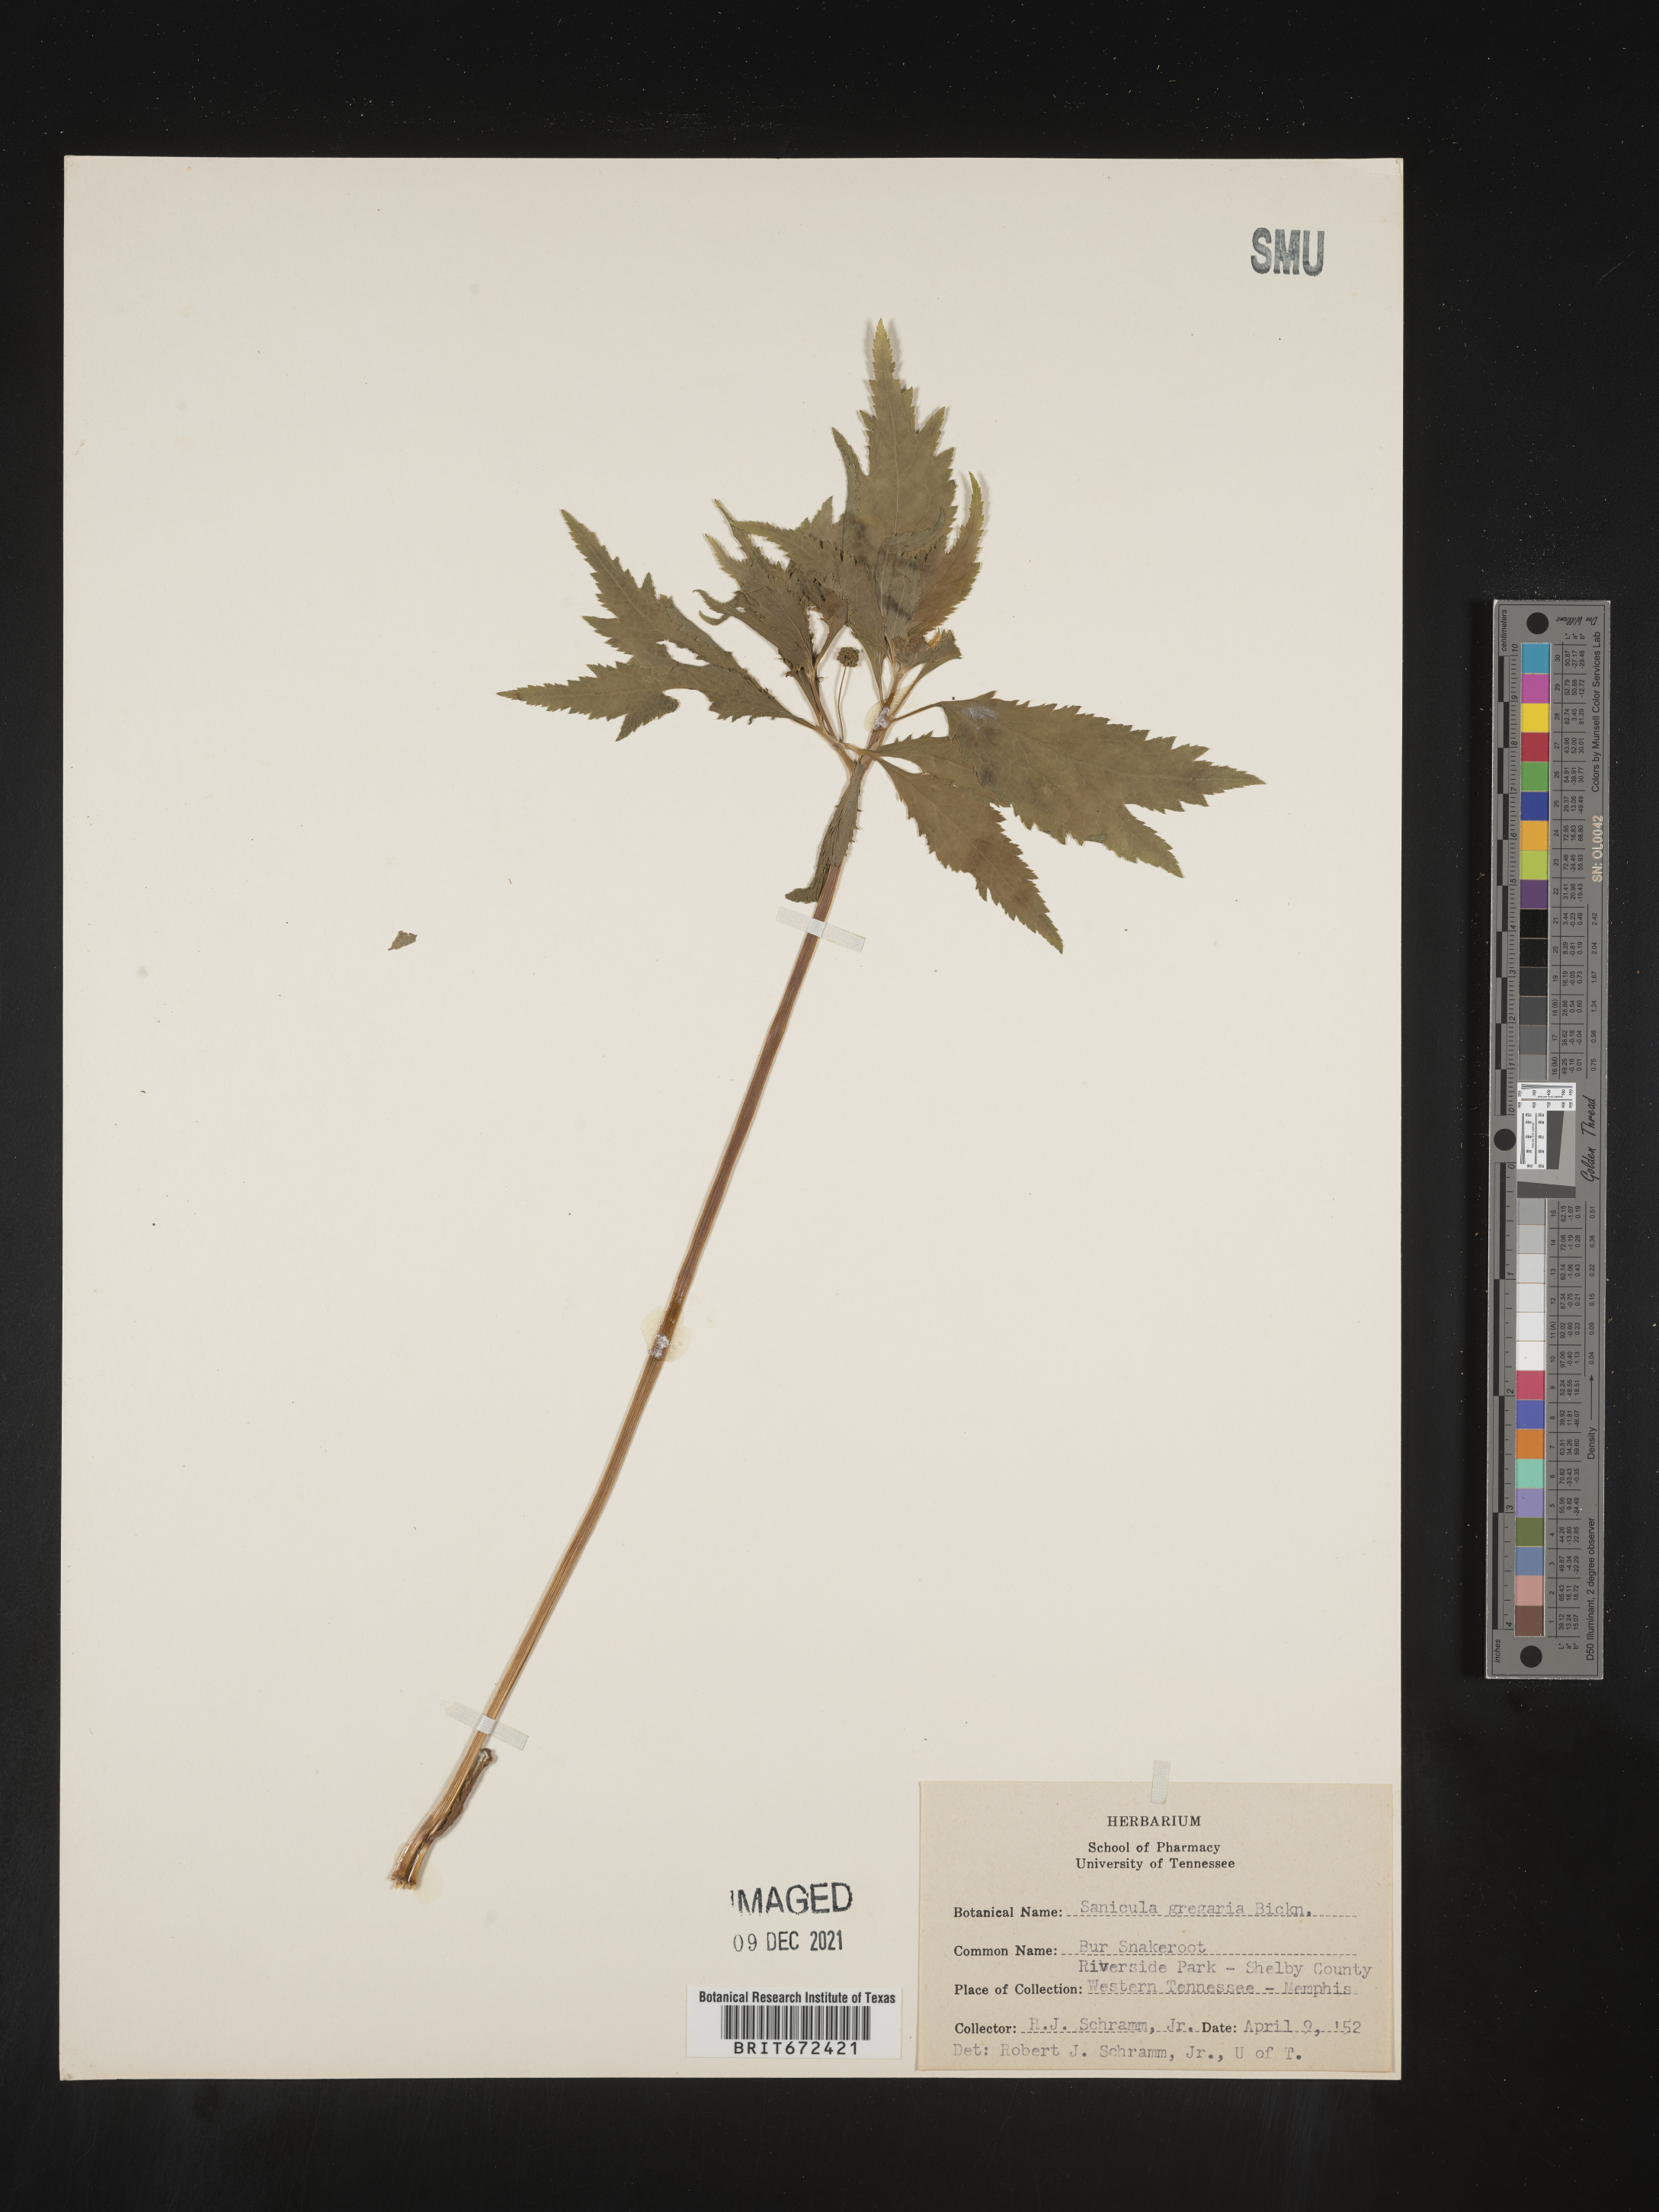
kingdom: Plantae
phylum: Tracheophyta
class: Magnoliopsida
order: Apiales
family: Apiaceae
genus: Sanicula
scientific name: Sanicula odorata
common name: Cluster sanicle
